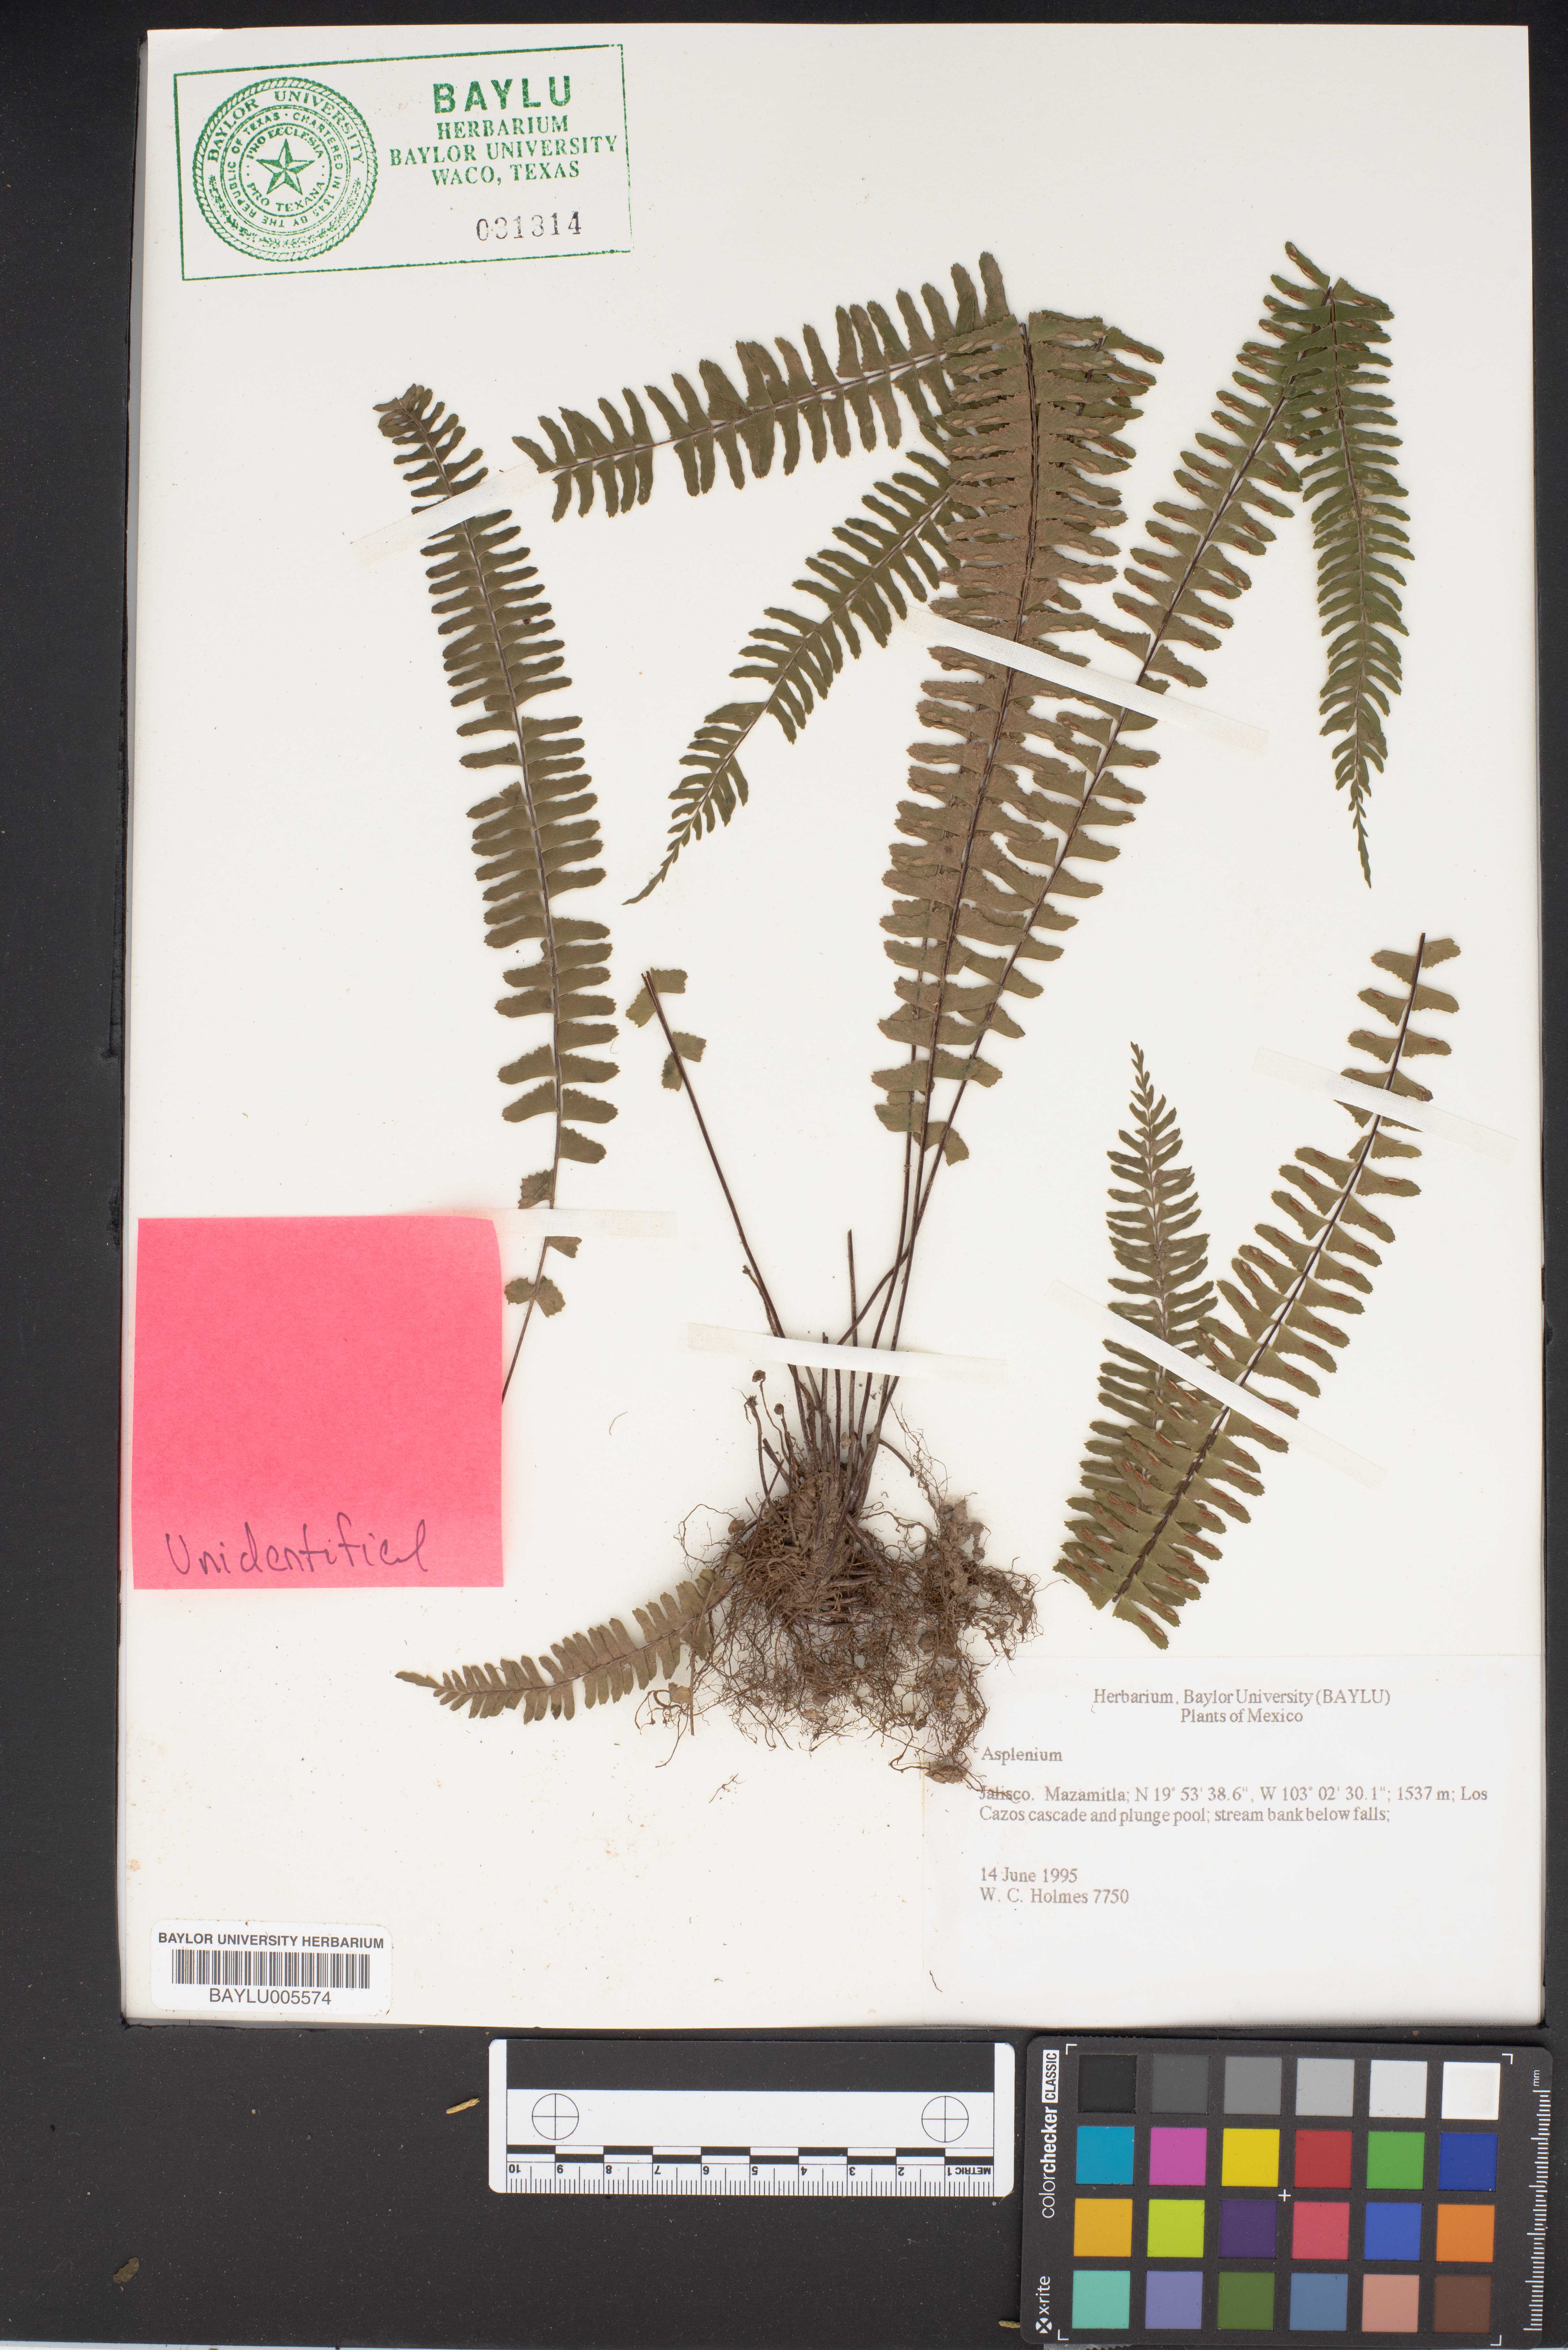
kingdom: Plantae
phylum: Tracheophyta
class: Polypodiopsida
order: Polypodiales
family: Aspleniaceae
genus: Asplenium
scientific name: Asplenium
